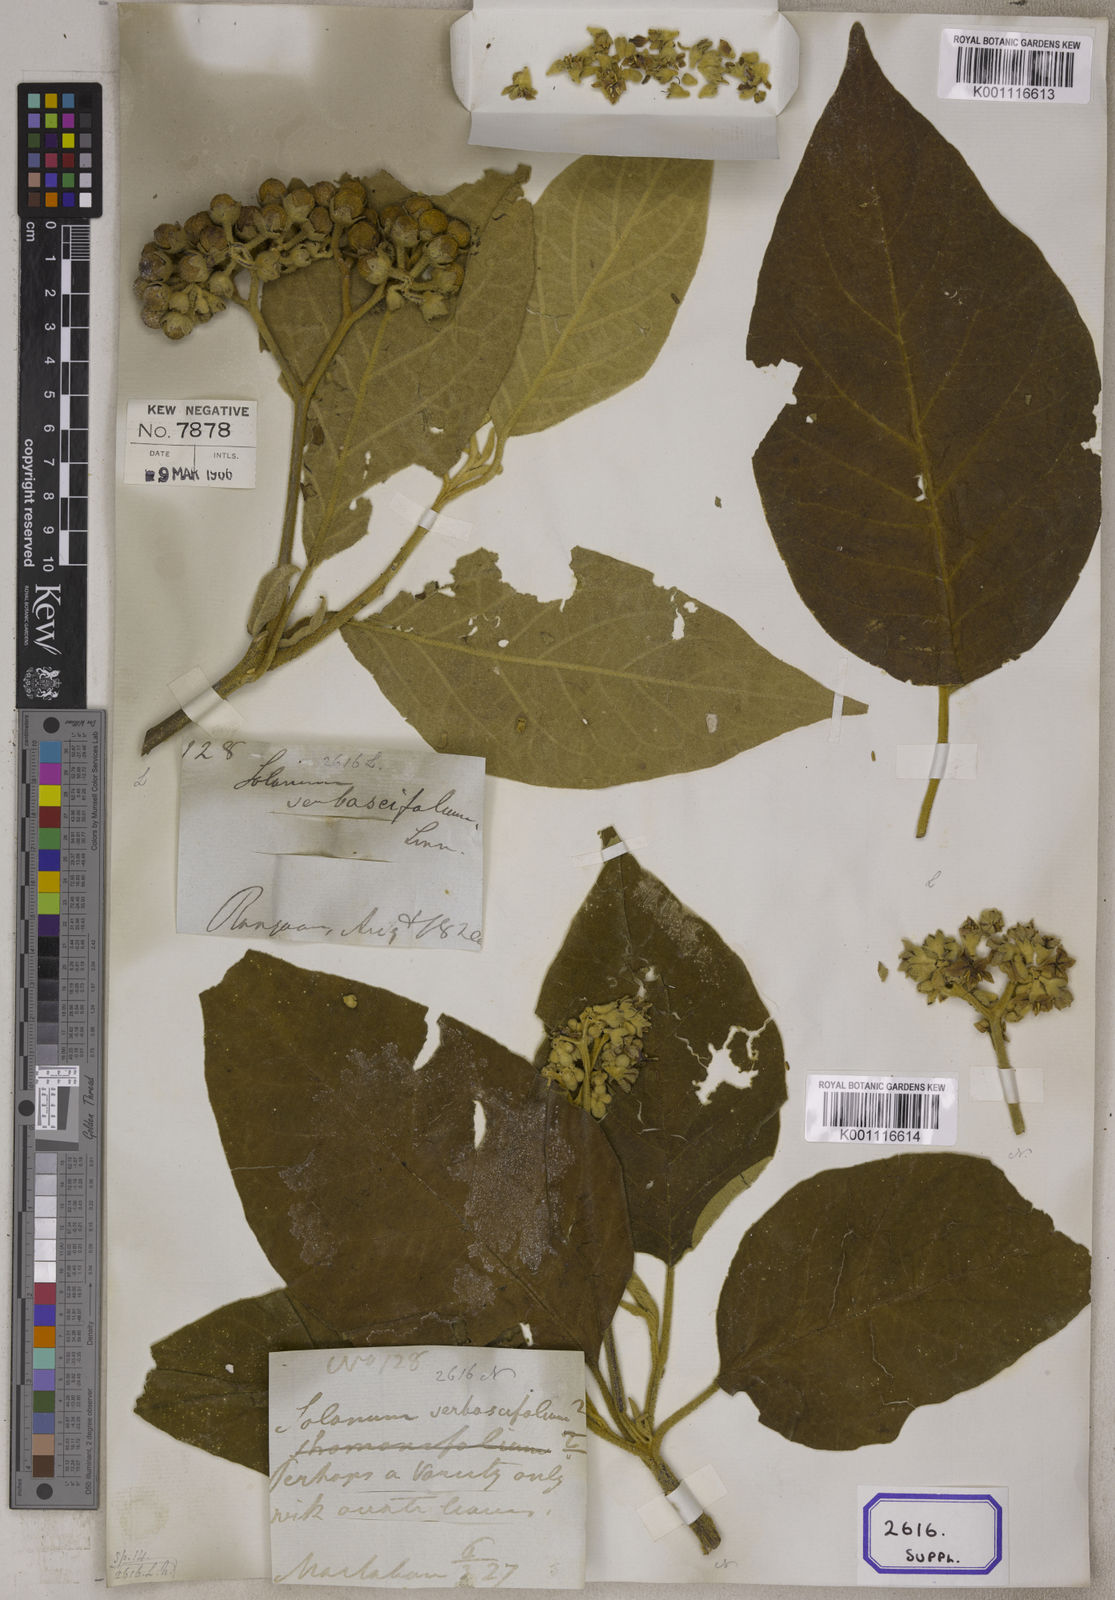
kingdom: Plantae
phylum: Tracheophyta
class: Magnoliopsida
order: Solanales
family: Solanaceae
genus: Solanum
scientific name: Solanum donianum
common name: Mullein nightshade
